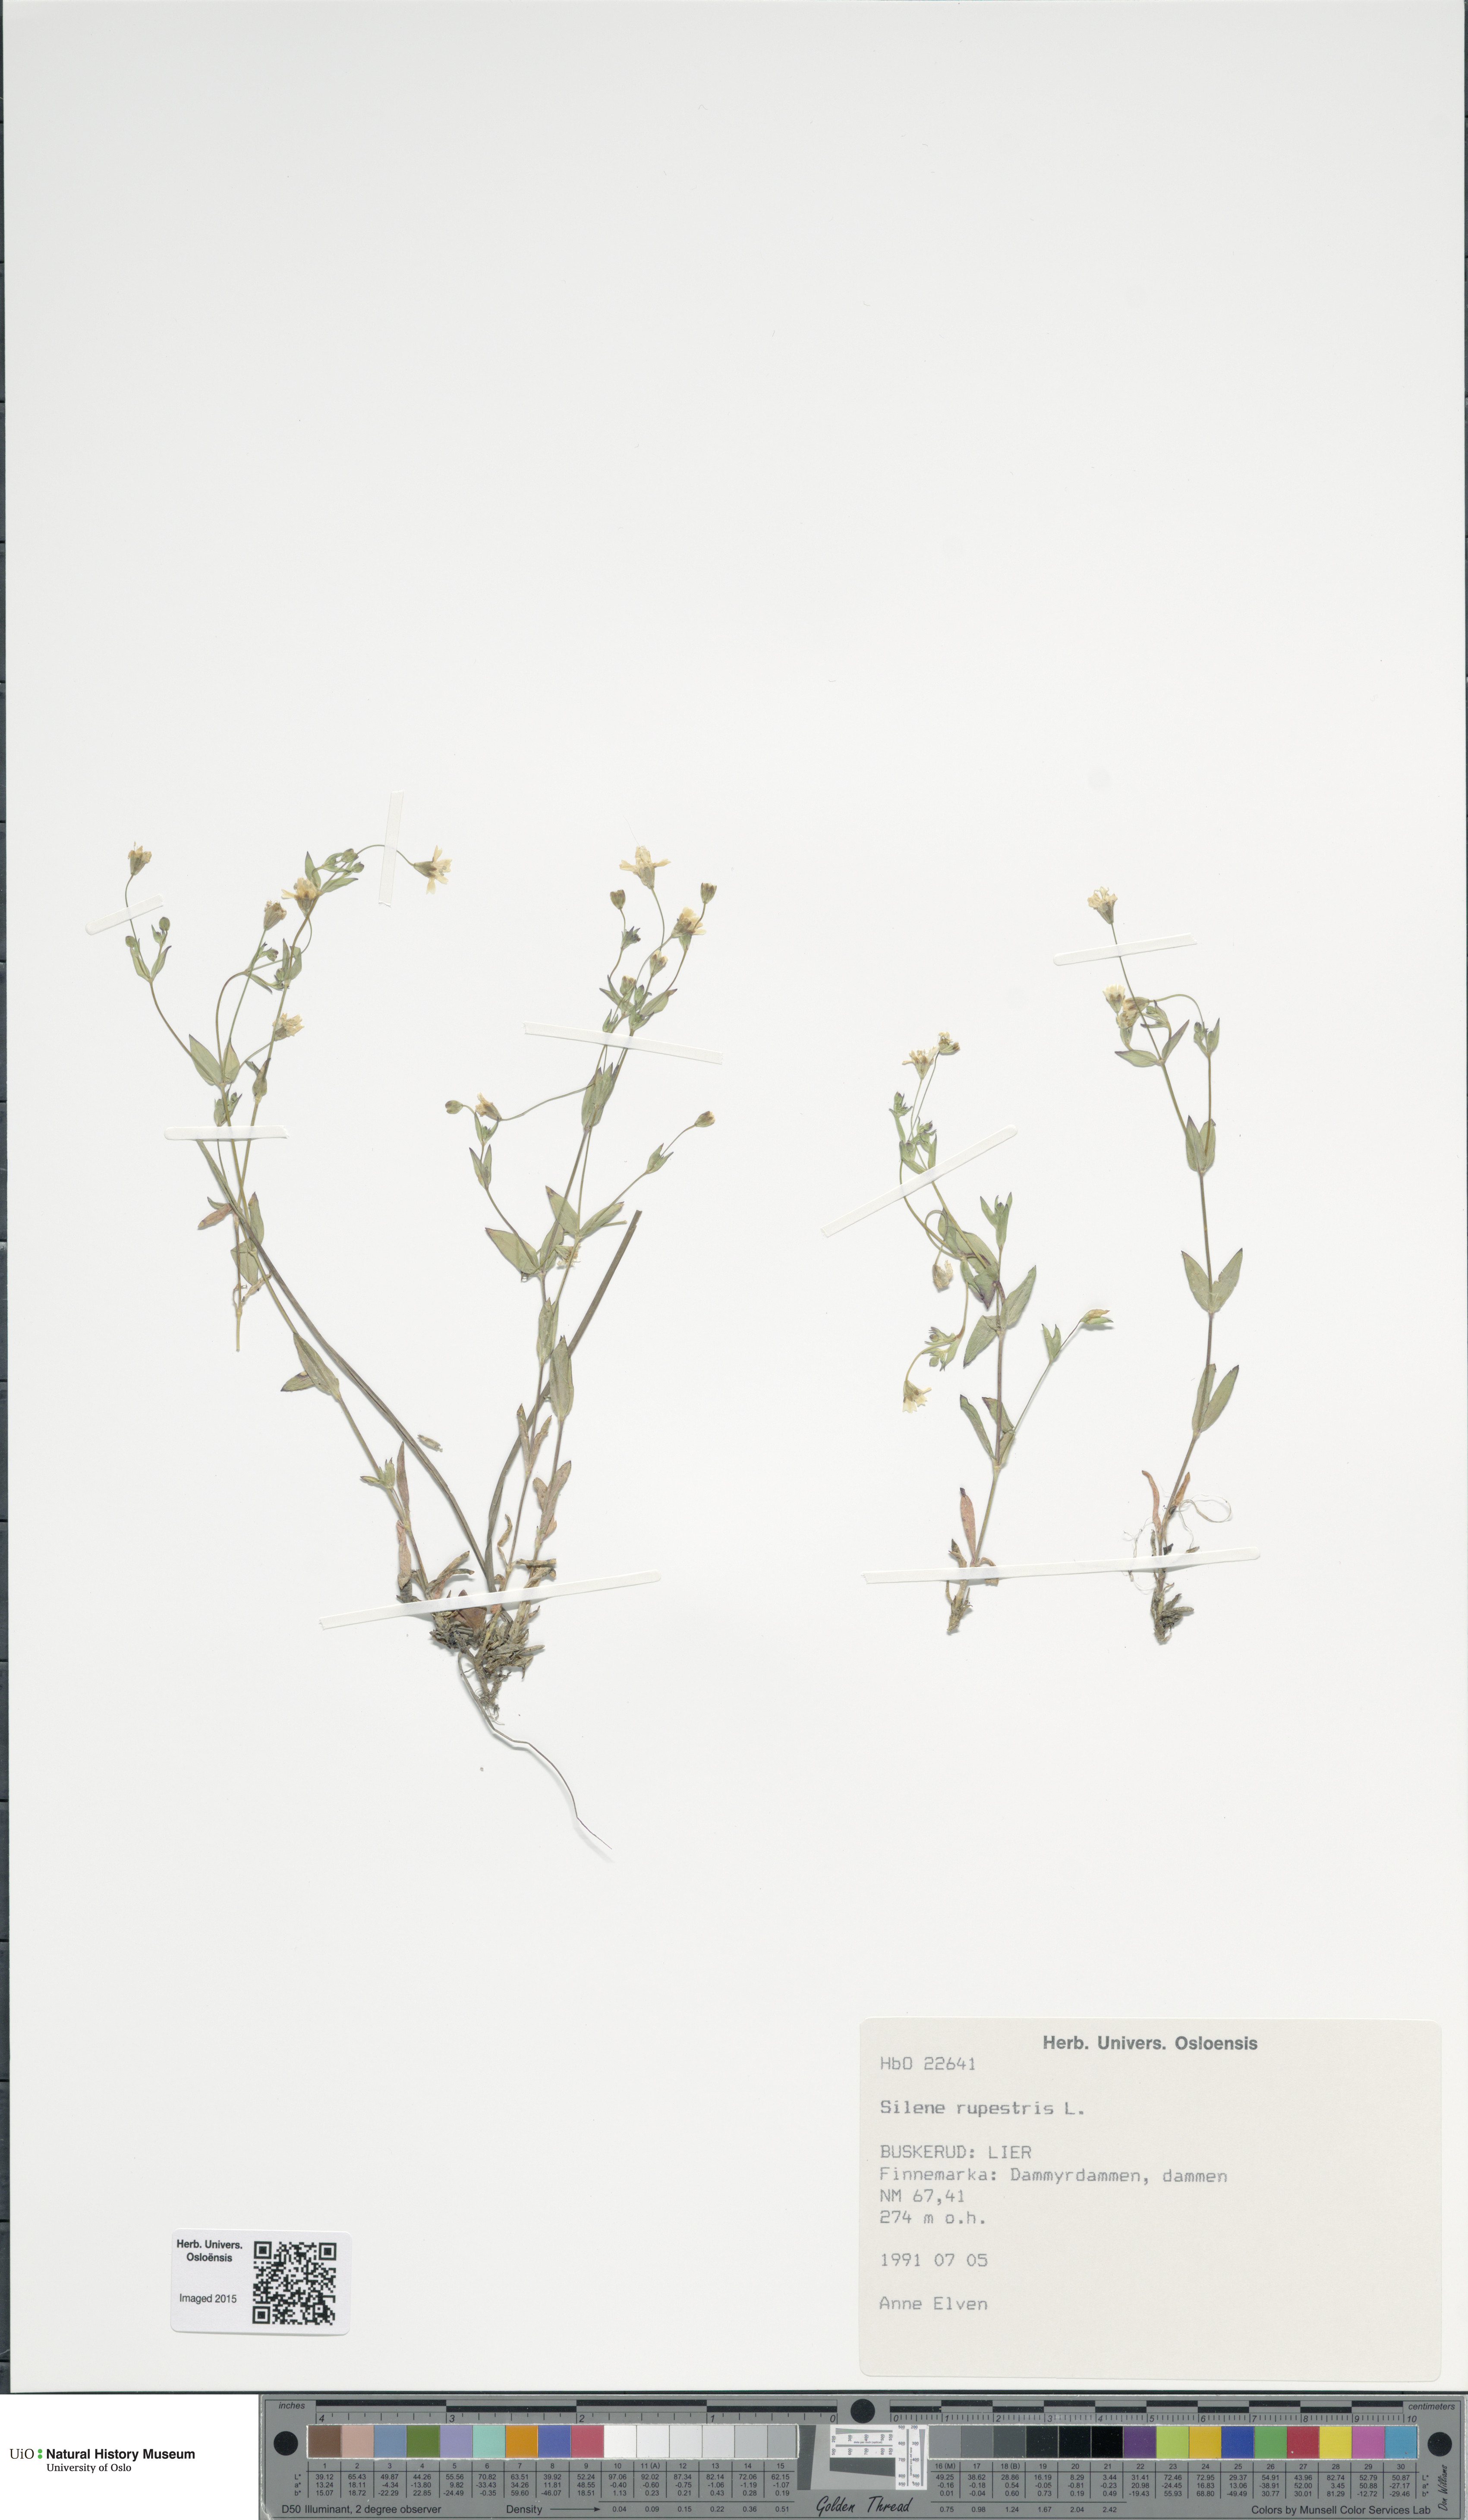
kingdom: Plantae
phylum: Tracheophyta
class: Magnoliopsida
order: Caryophyllales
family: Caryophyllaceae
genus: Atocion
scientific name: Atocion rupestre
